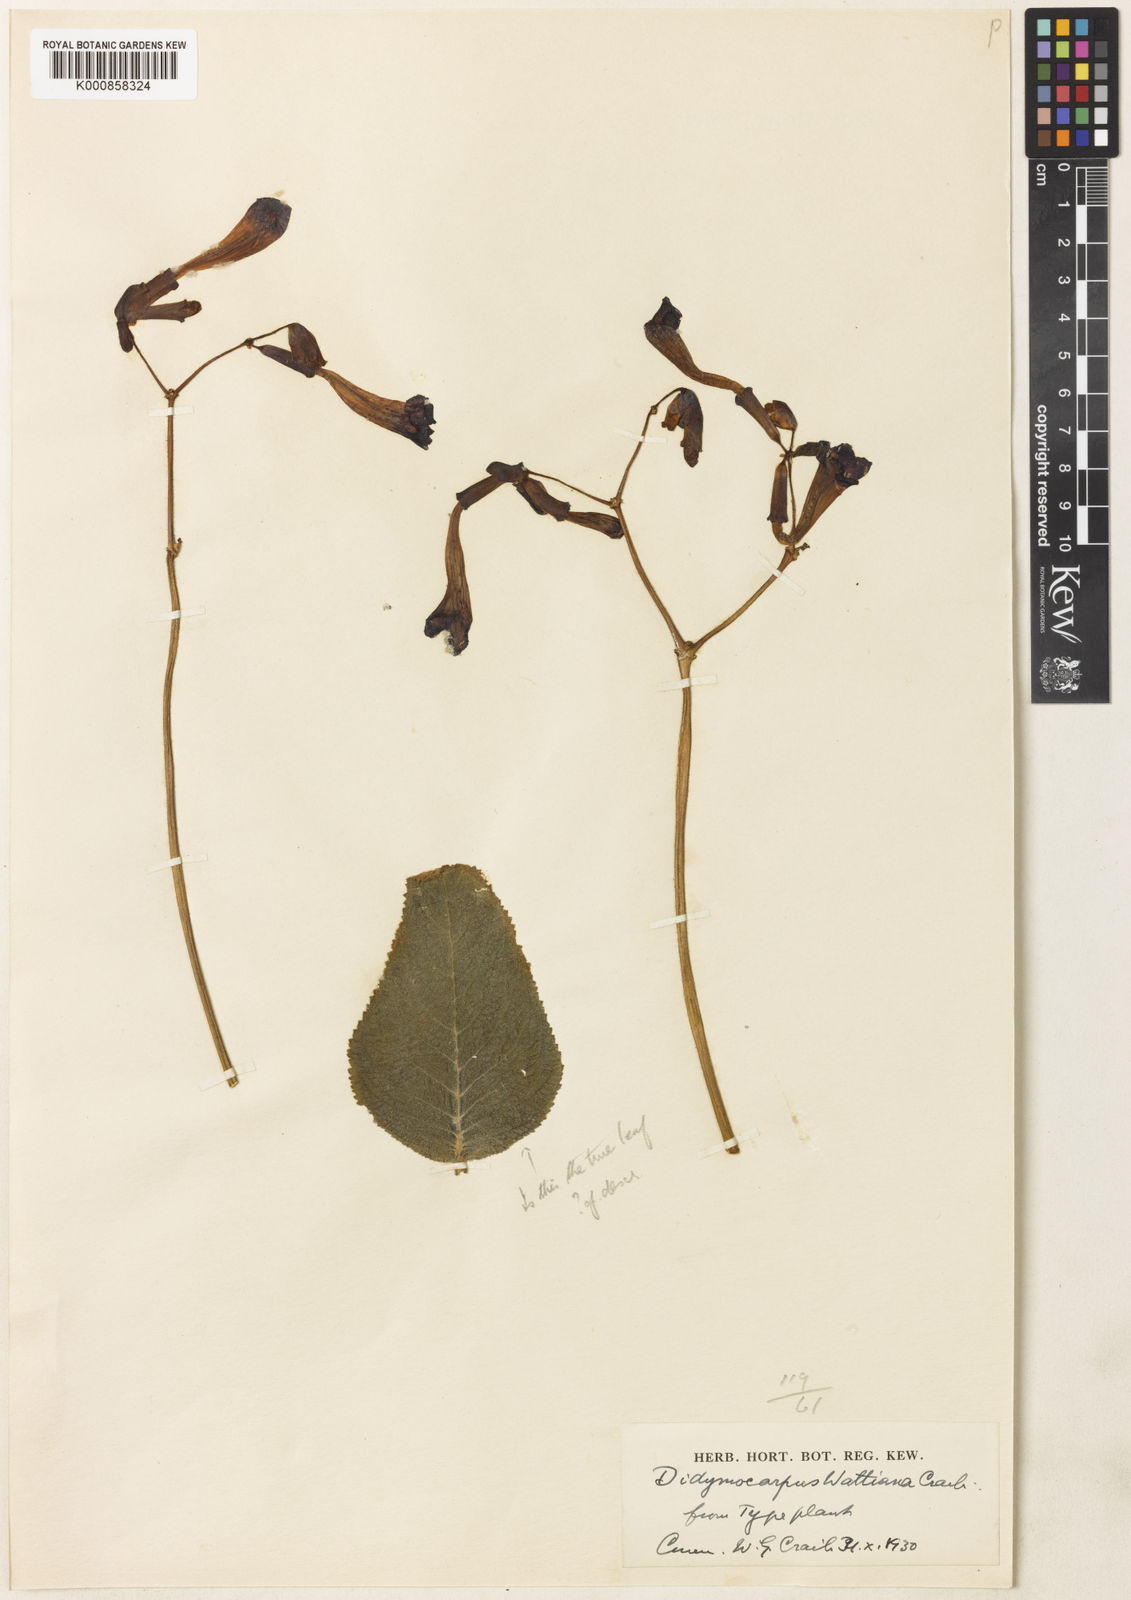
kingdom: Plantae
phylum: Tracheophyta
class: Magnoliopsida
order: Lamiales
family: Gesneriaceae
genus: Didymocarpus
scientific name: Didymocarpus wattianus
